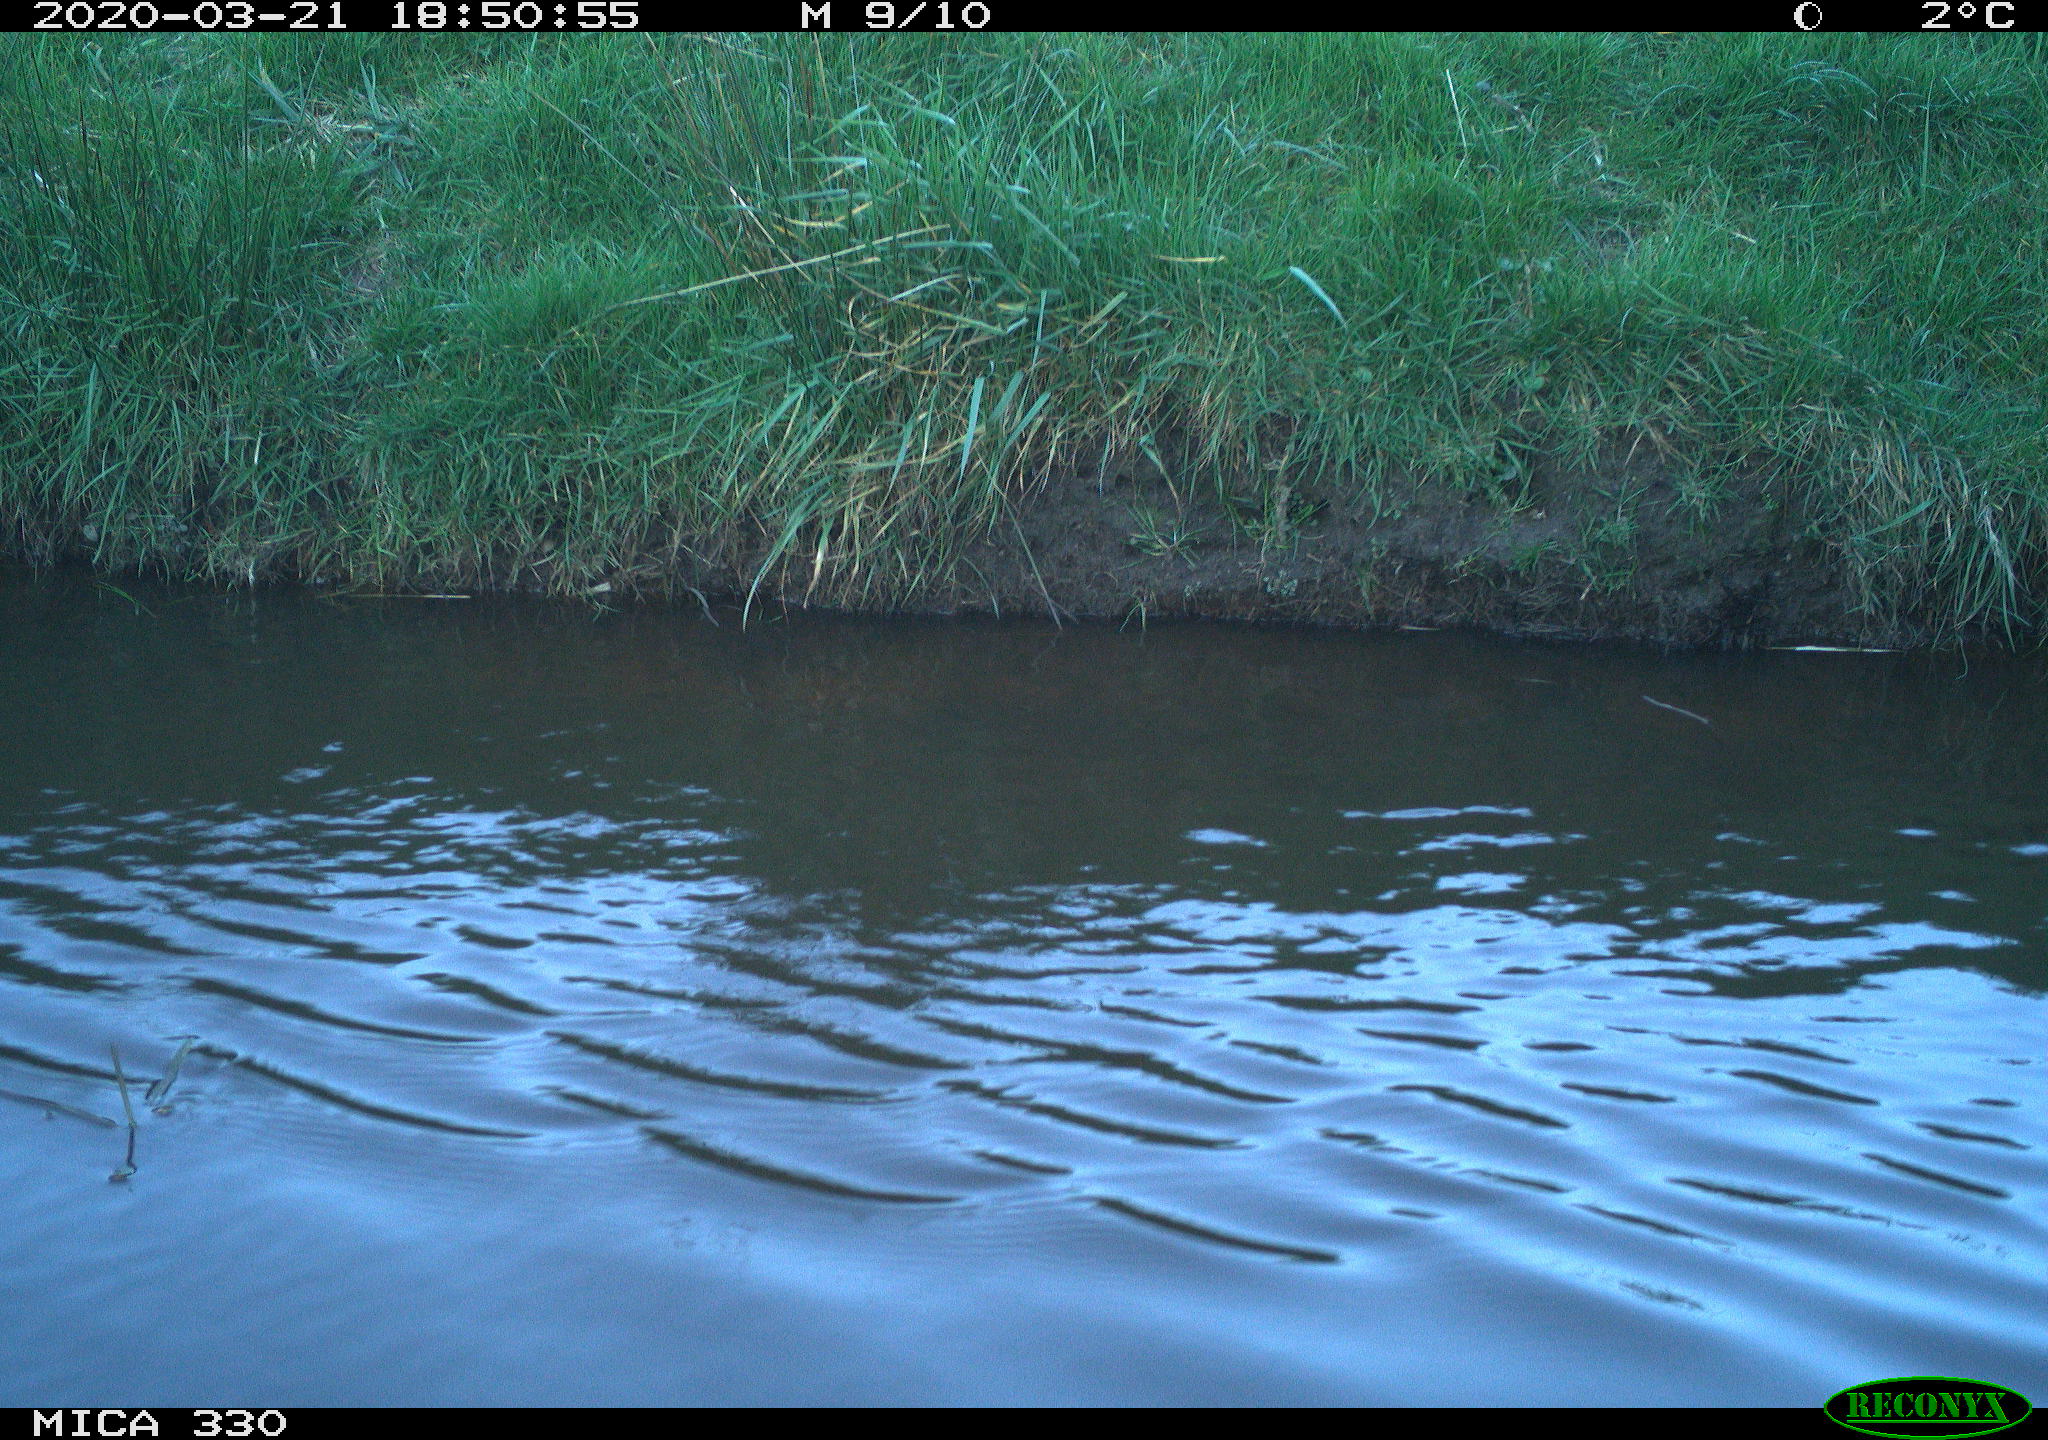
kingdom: Animalia
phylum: Chordata
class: Aves
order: Anseriformes
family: Anatidae
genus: Anas
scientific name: Anas platyrhynchos
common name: Mallard
